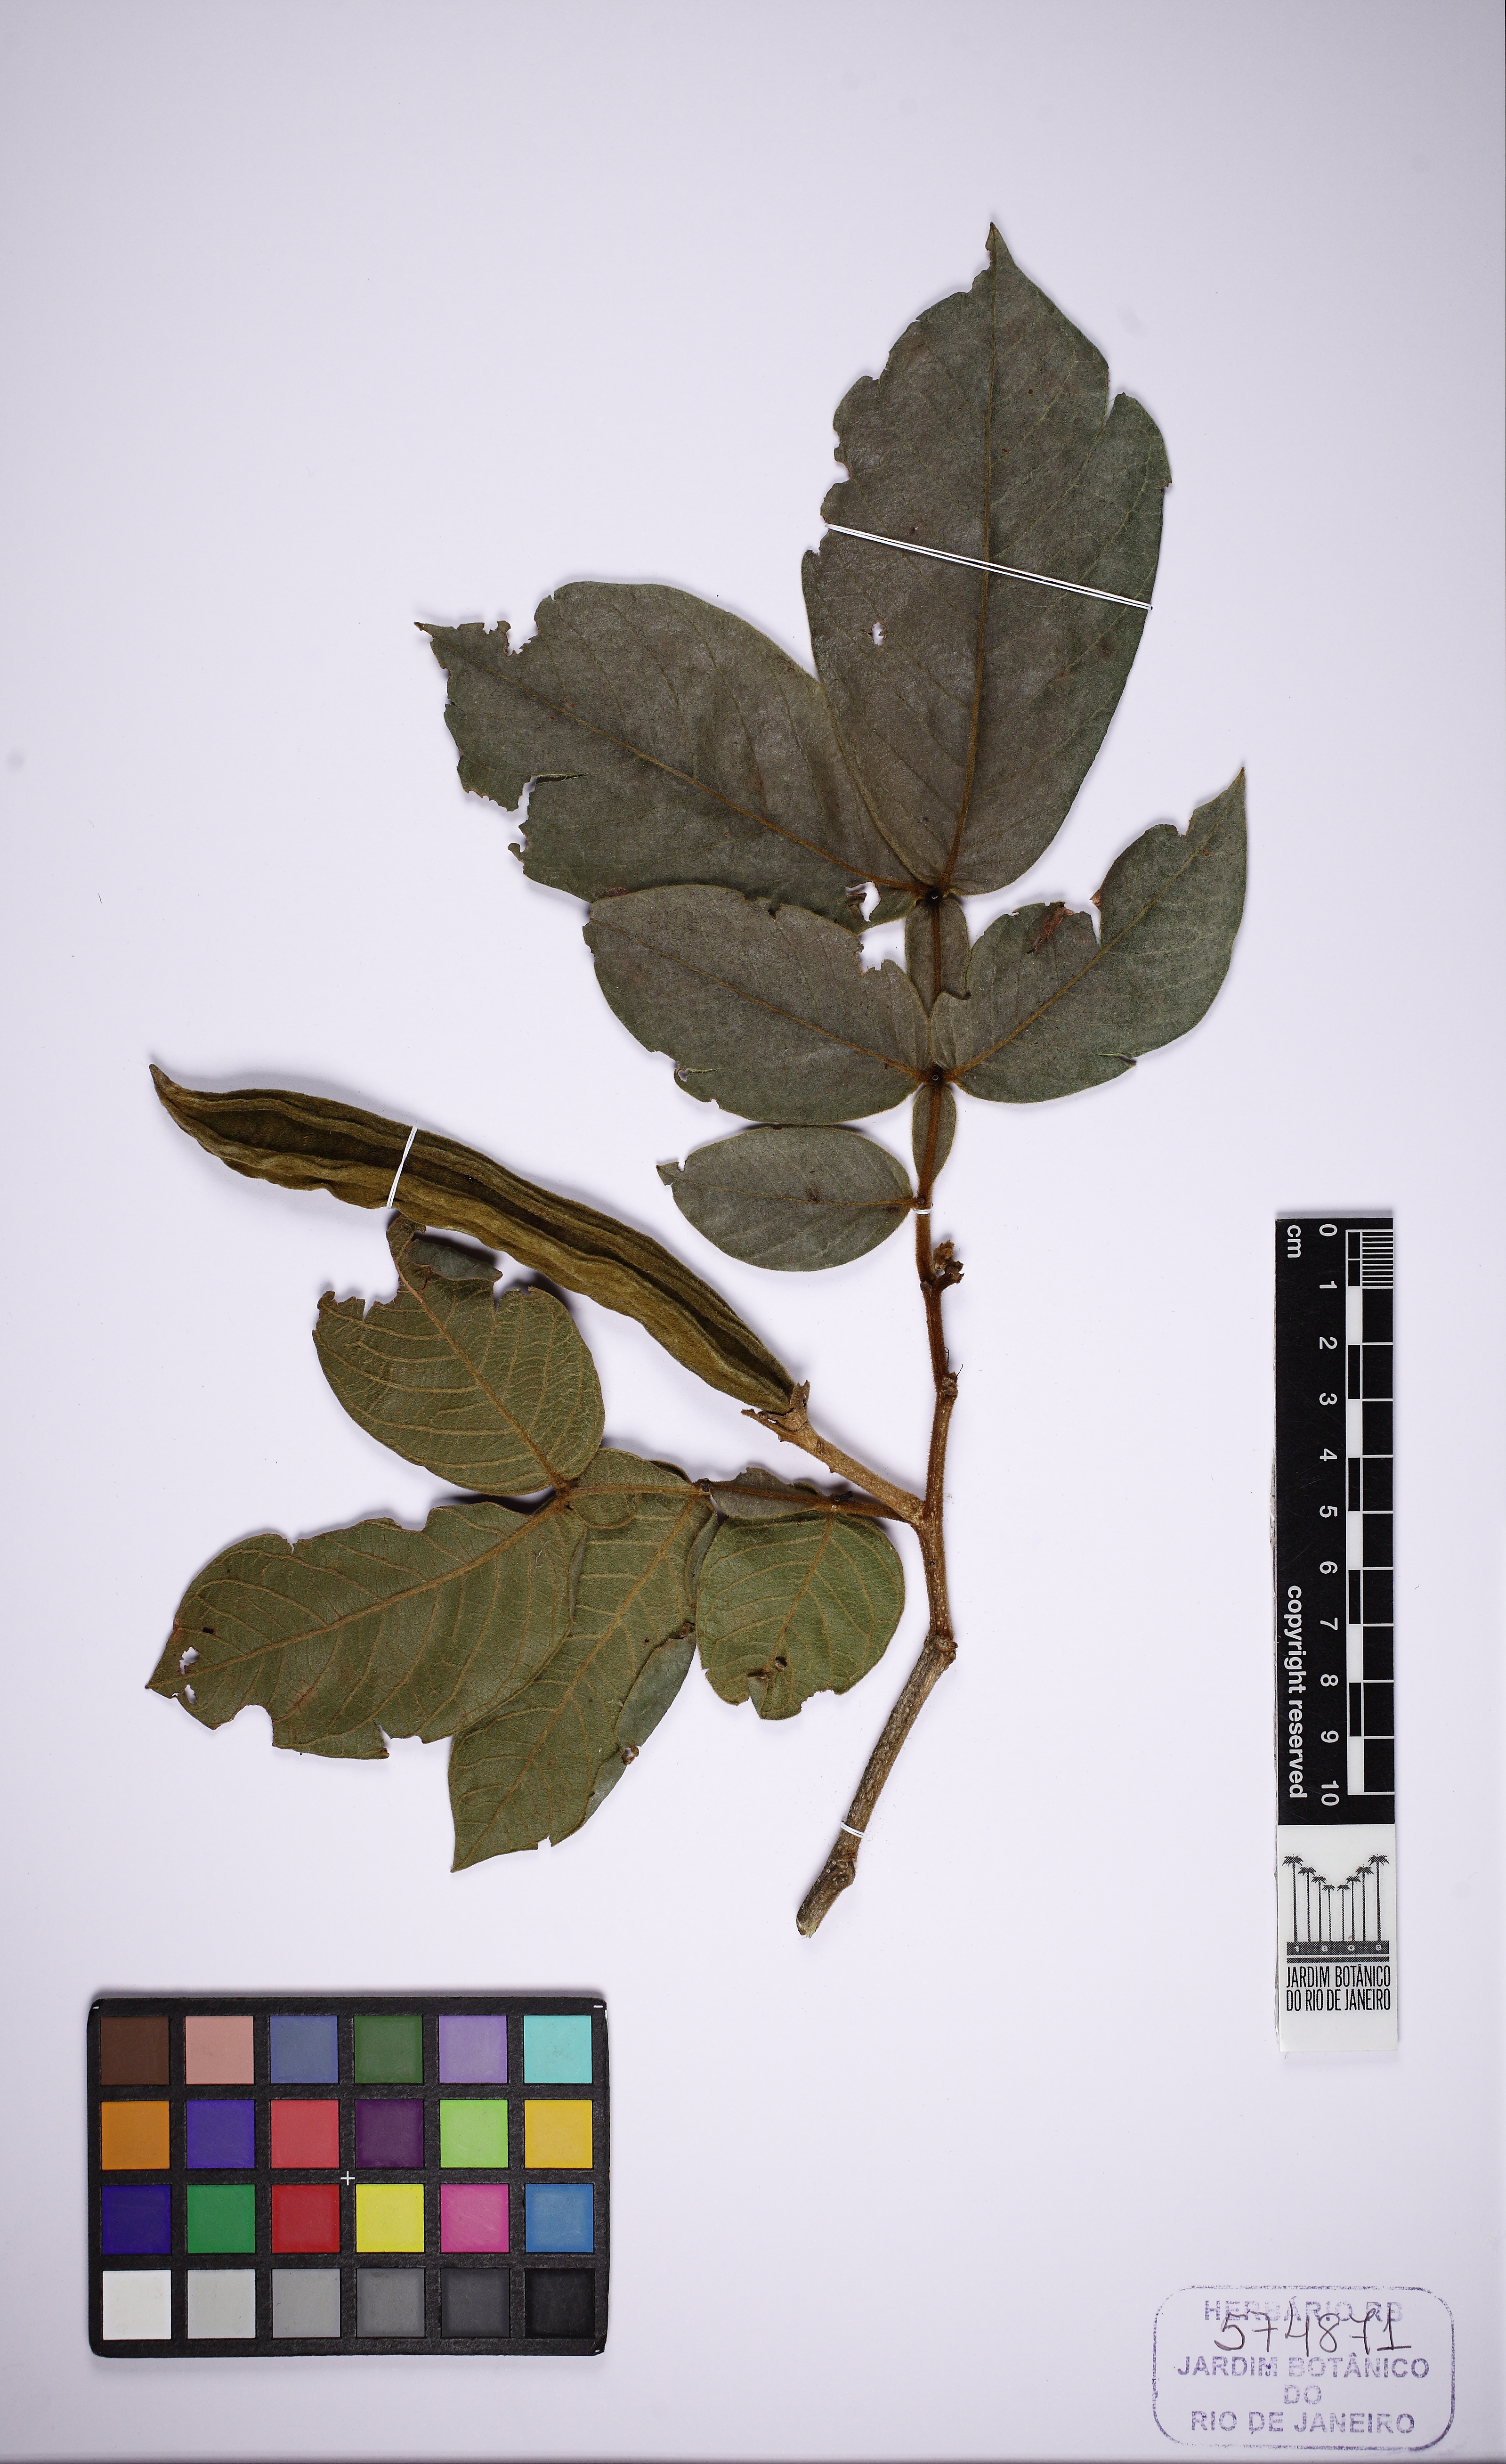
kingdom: Plantae
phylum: Tracheophyta
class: Magnoliopsida
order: Fabales
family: Fabaceae
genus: Inga
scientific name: Inga subnuda
